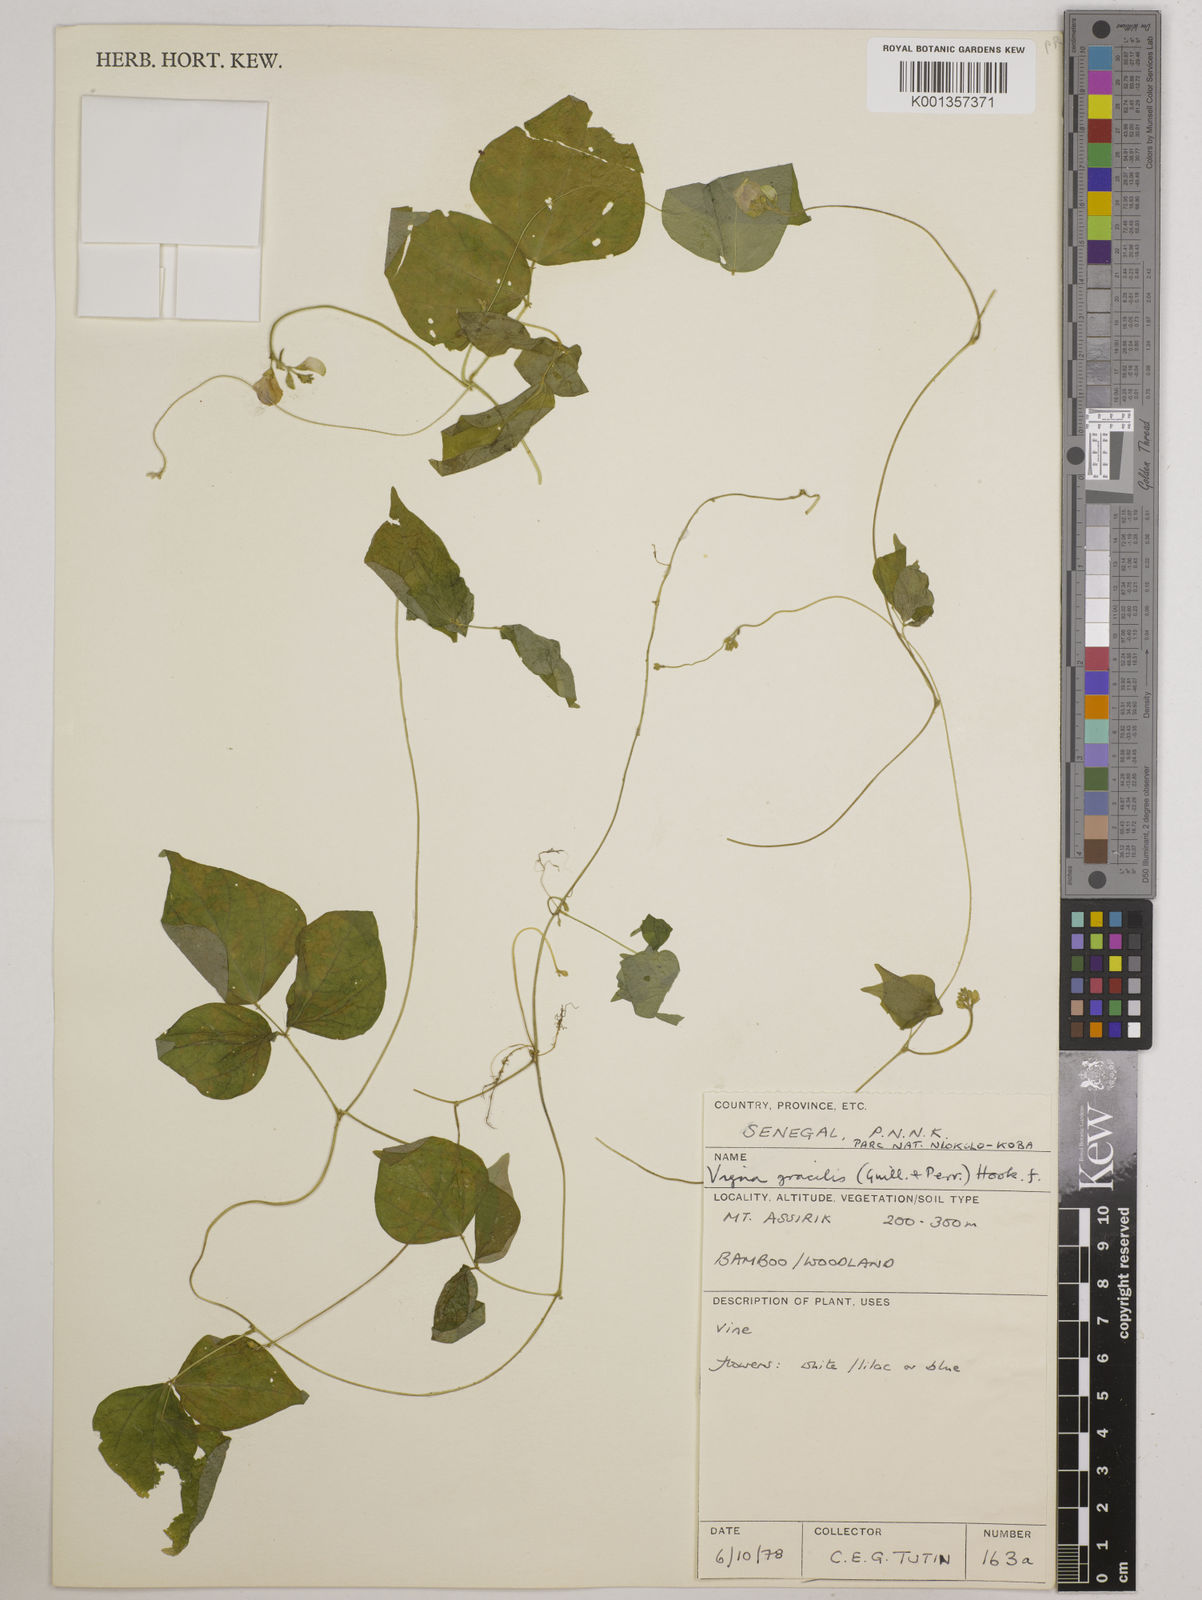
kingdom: Plantae
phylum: Tracheophyta
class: Magnoliopsida
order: Fabales
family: Fabaceae
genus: Vigna
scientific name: Vigna gracilis
